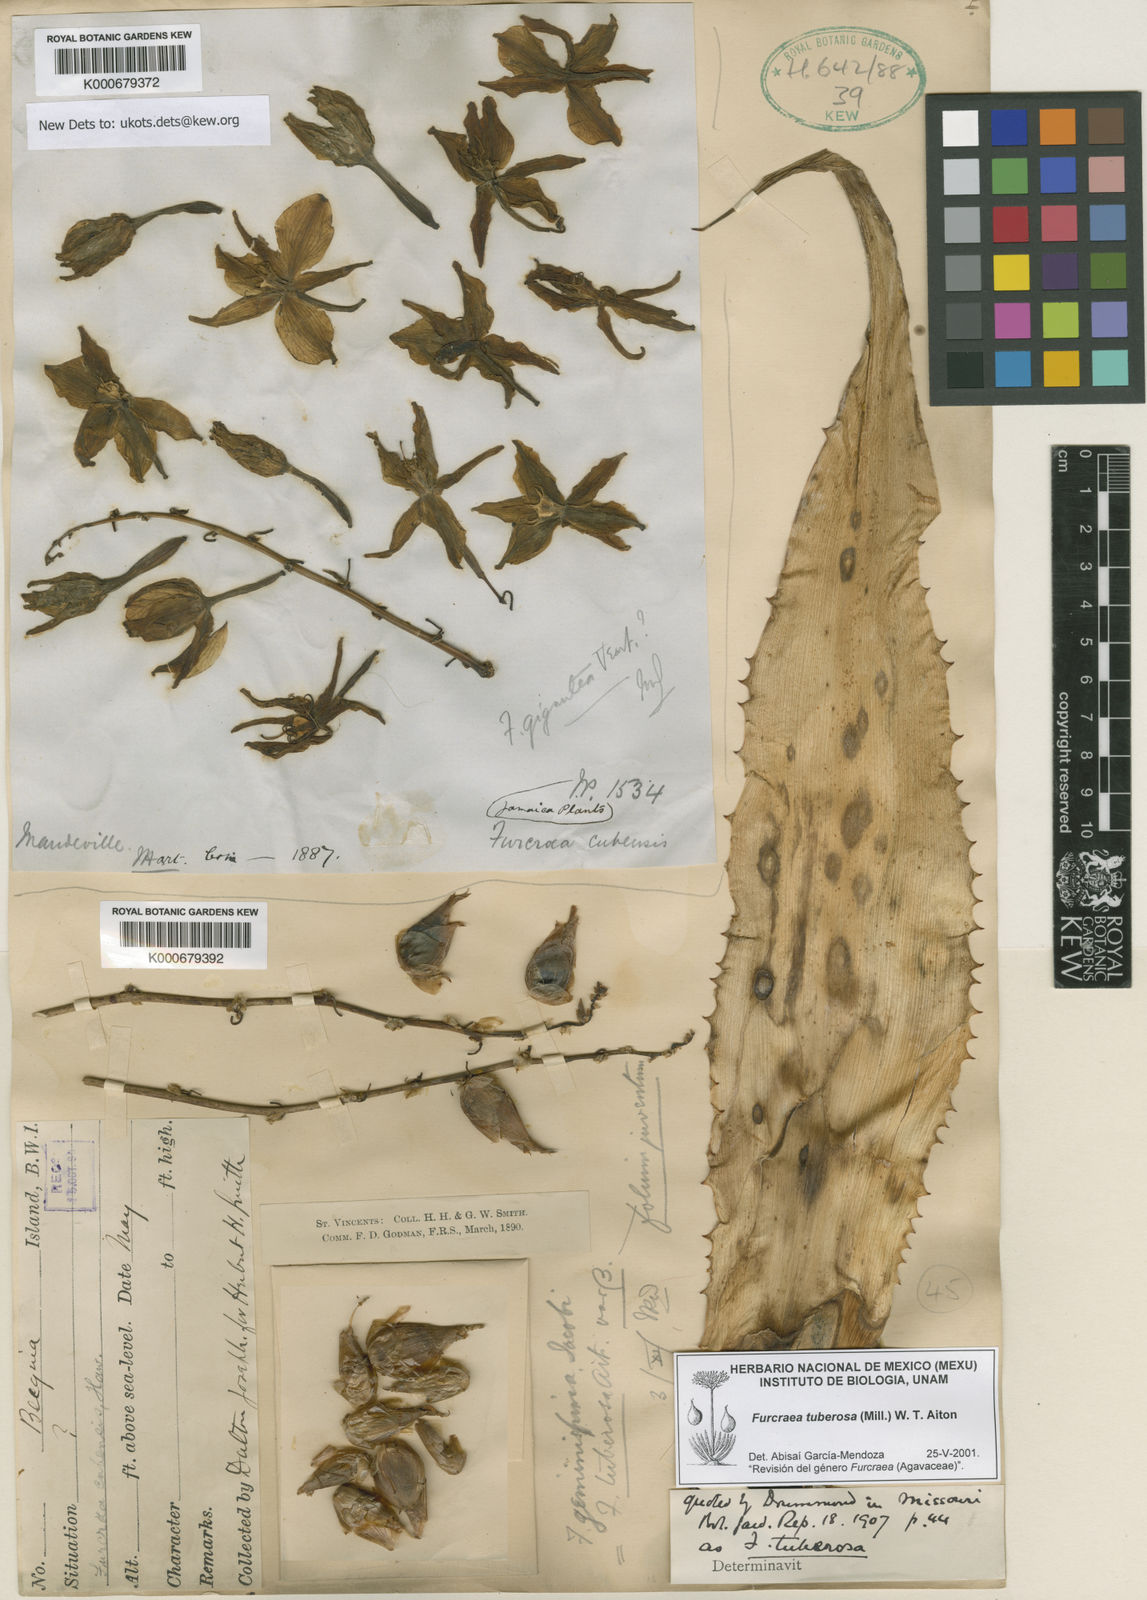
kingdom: Plantae
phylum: Tracheophyta
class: Liliopsida
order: Asparagales
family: Asparagaceae
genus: Furcraea
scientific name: Furcraea tuberosa
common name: Karata
